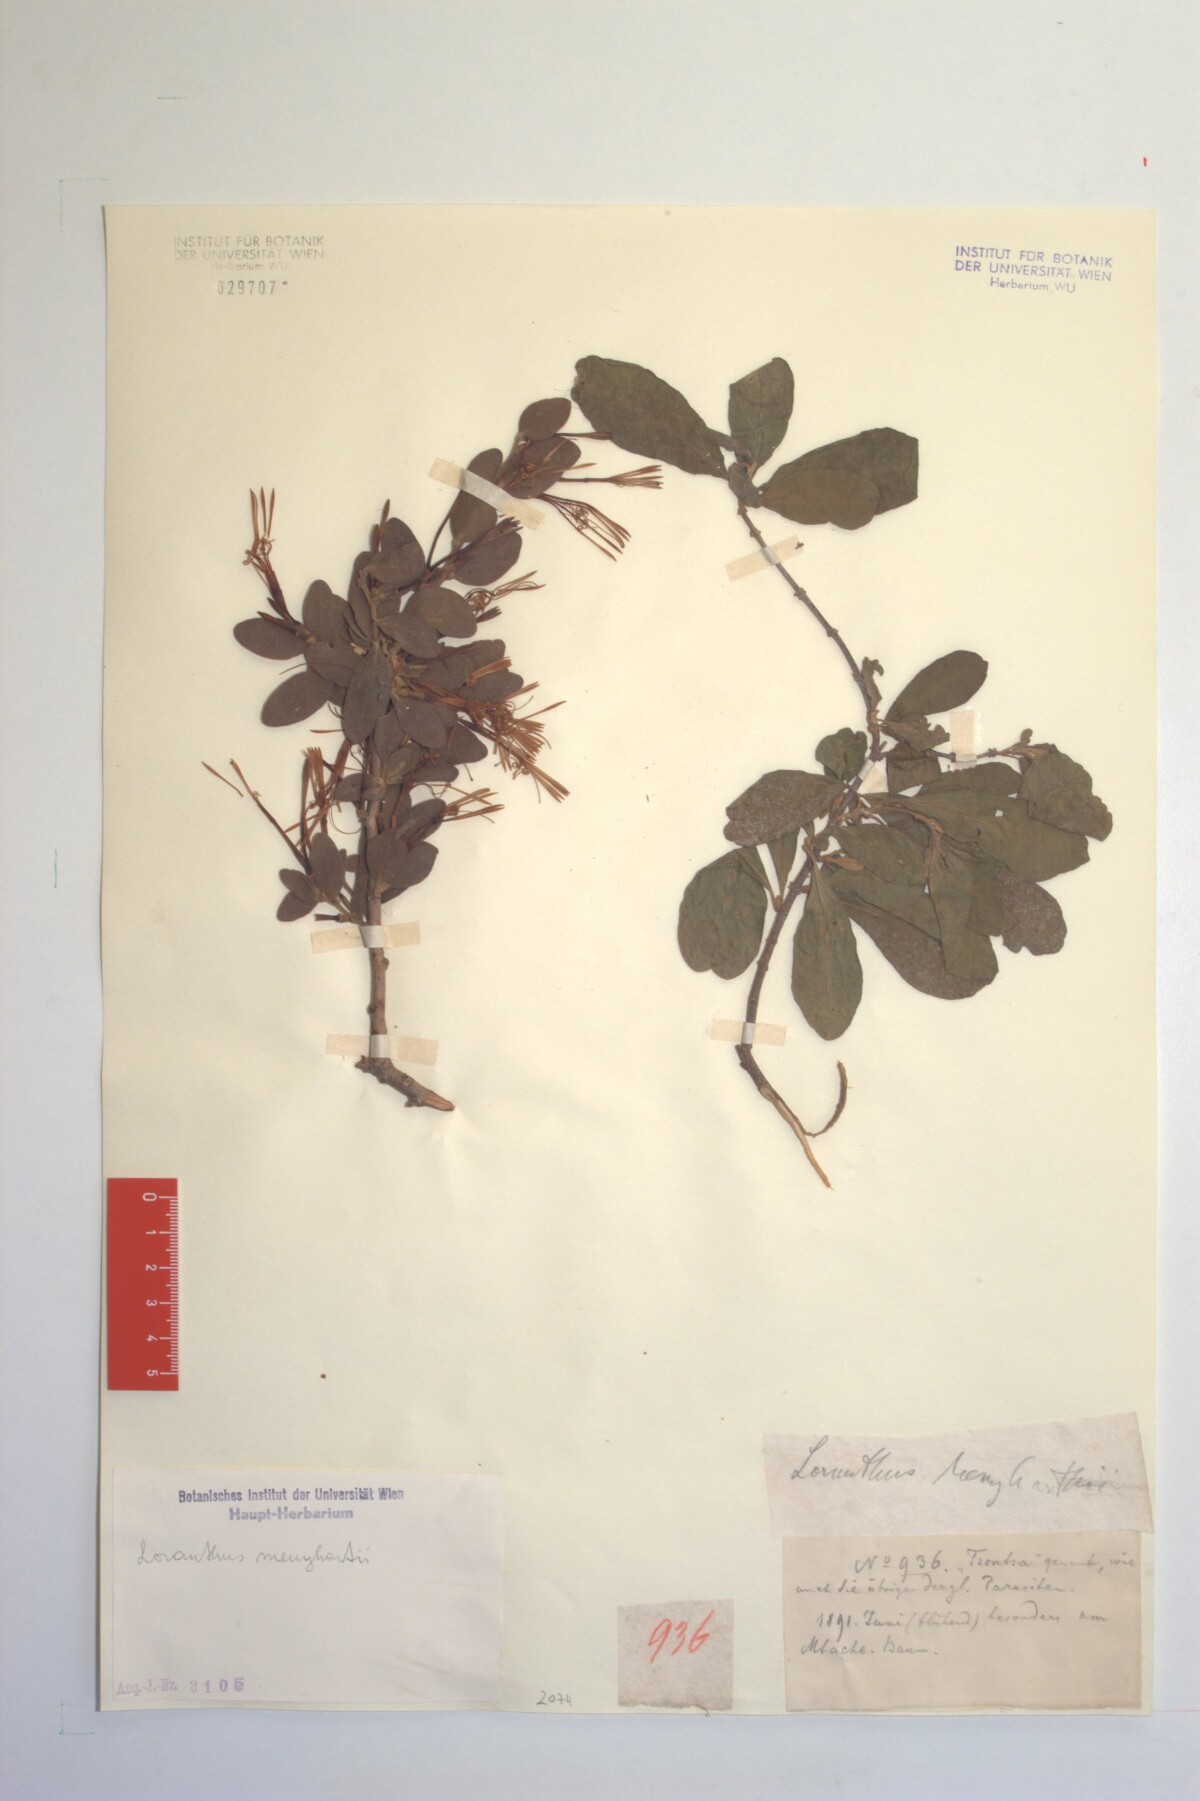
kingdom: Plantae
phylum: Tracheophyta
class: Magnoliopsida
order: Santalales
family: Loranthaceae
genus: Actinanthella
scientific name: Actinanthella menyharthii
